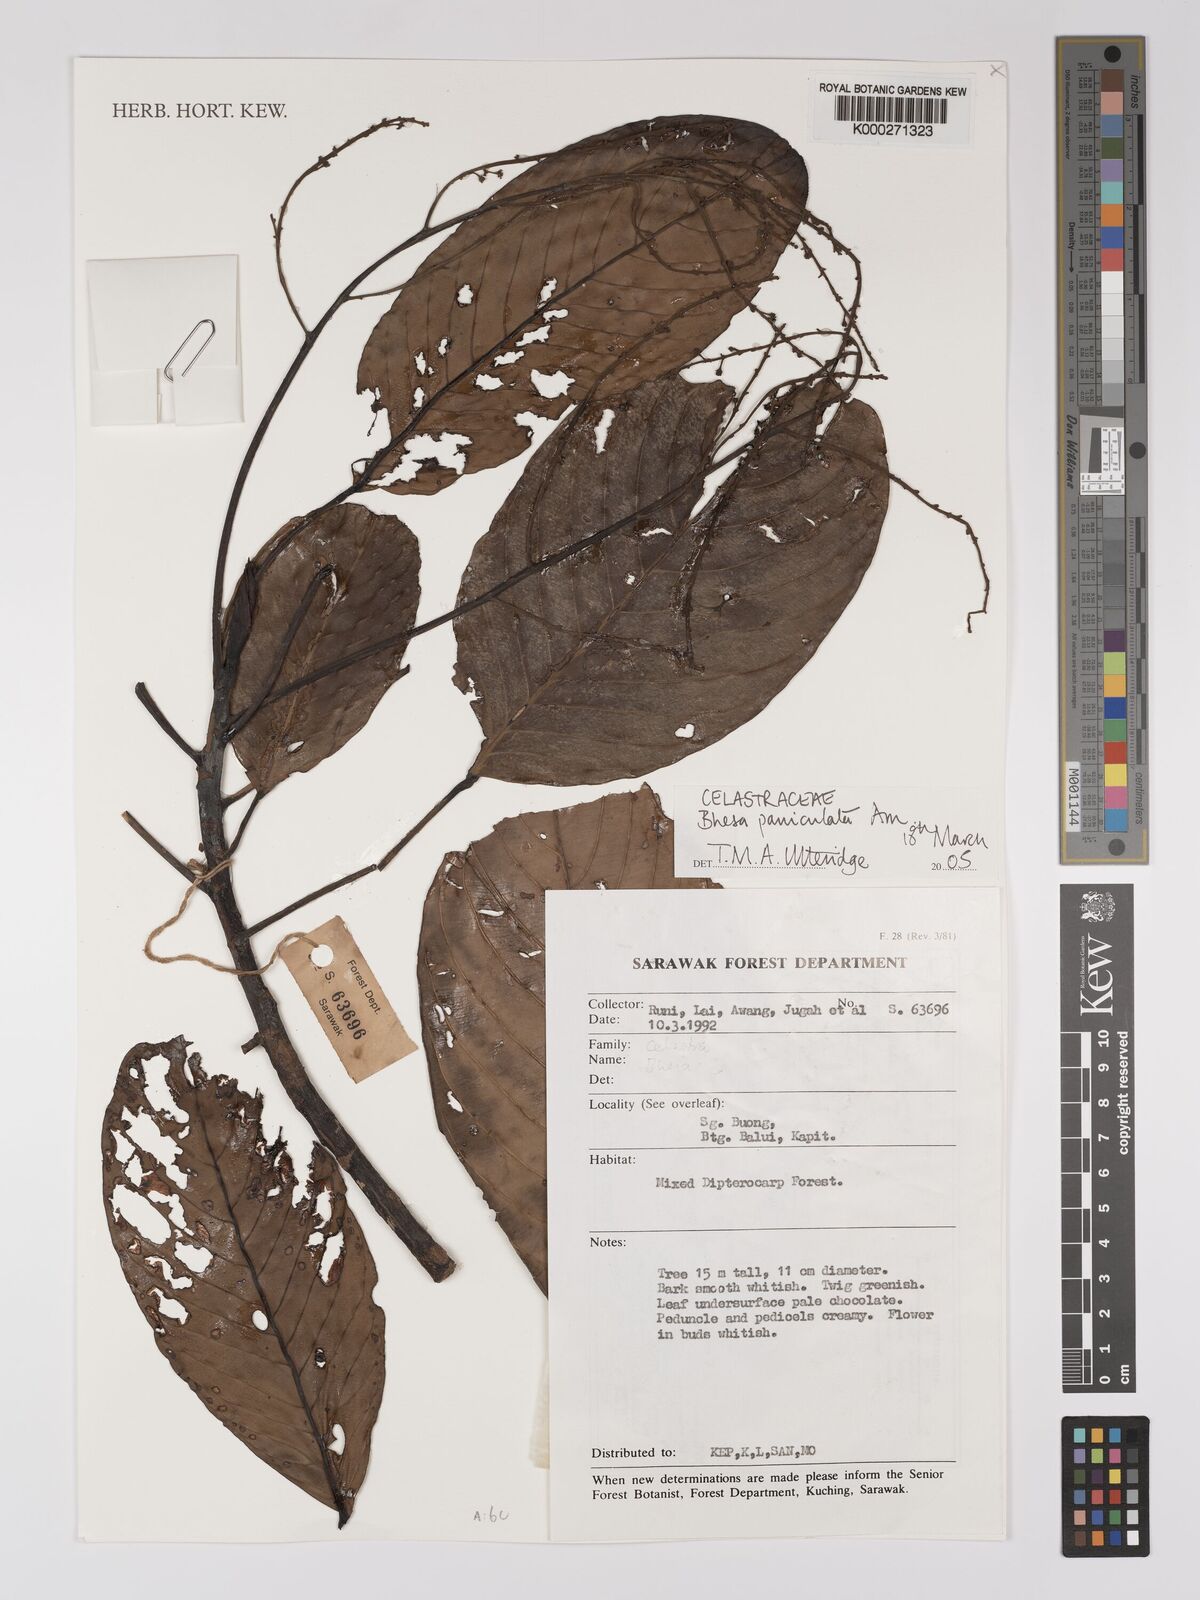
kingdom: Plantae
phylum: Tracheophyta
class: Magnoliopsida
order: Malpighiales
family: Centroplacaceae
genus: Bhesa
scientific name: Bhesa paniculata
